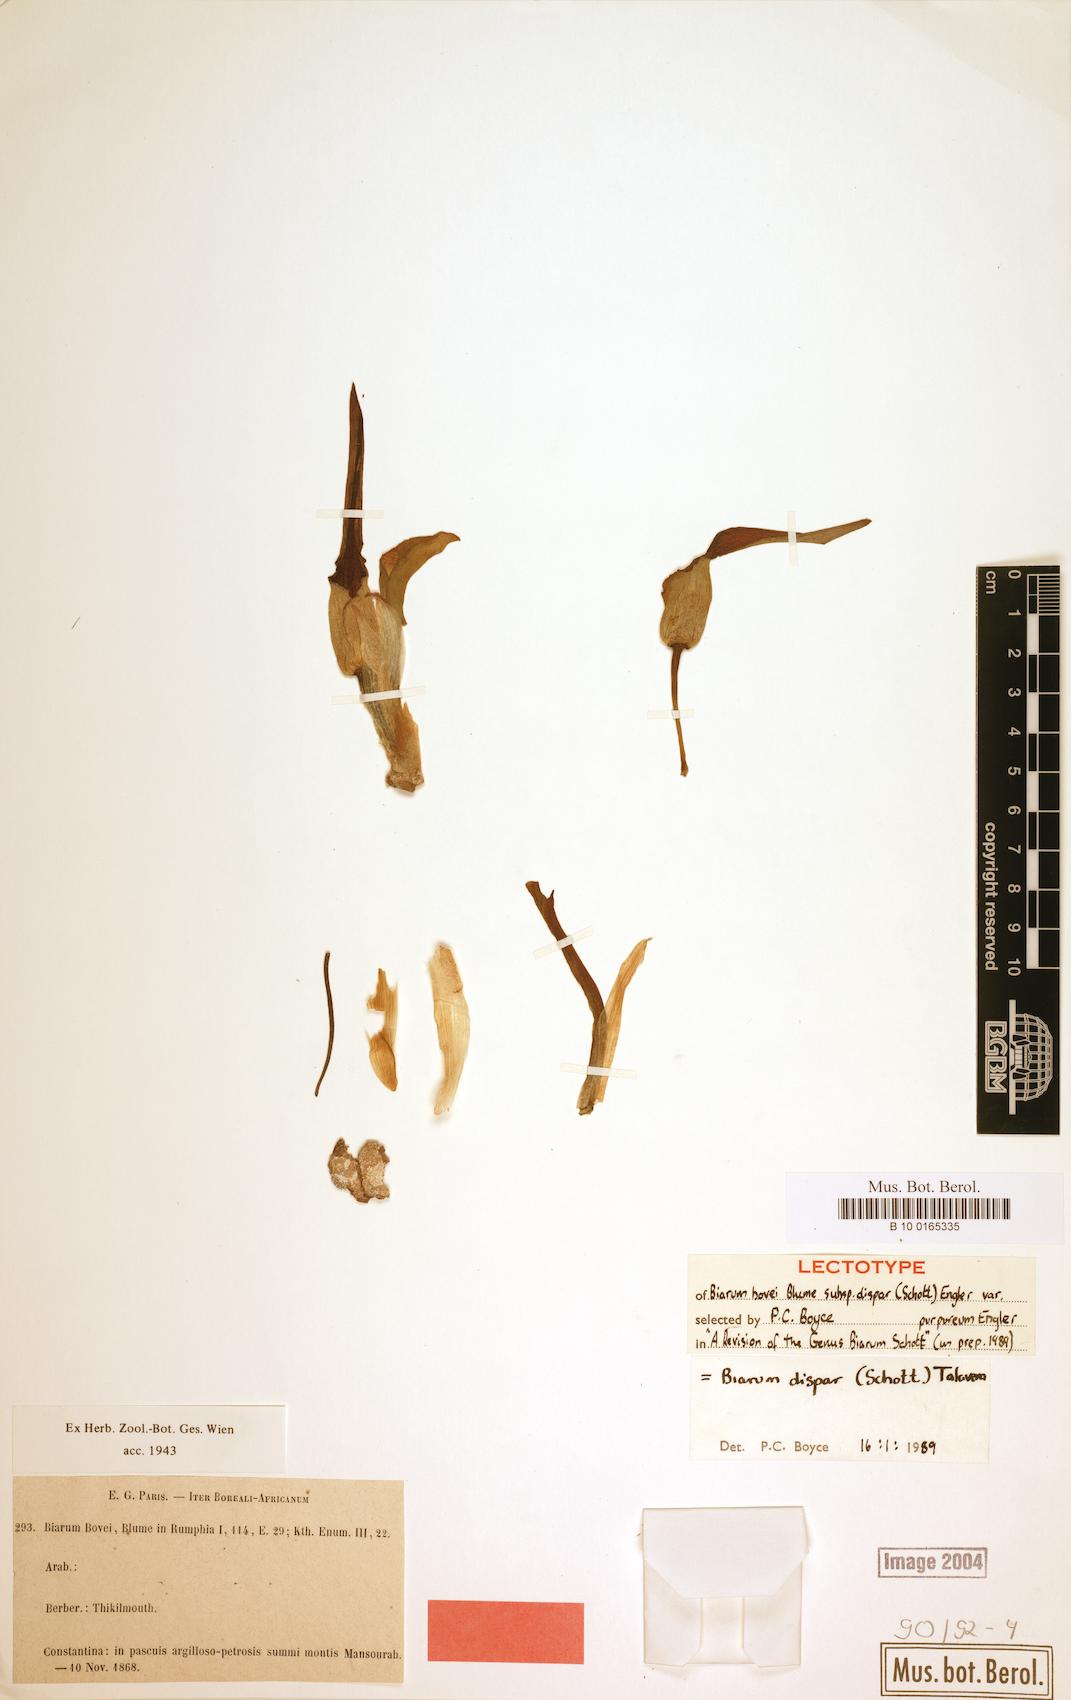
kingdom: Plantae
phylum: Tracheophyta
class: Liliopsida
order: Alismatales
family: Araceae
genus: Biarum
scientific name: Biarum dispar
